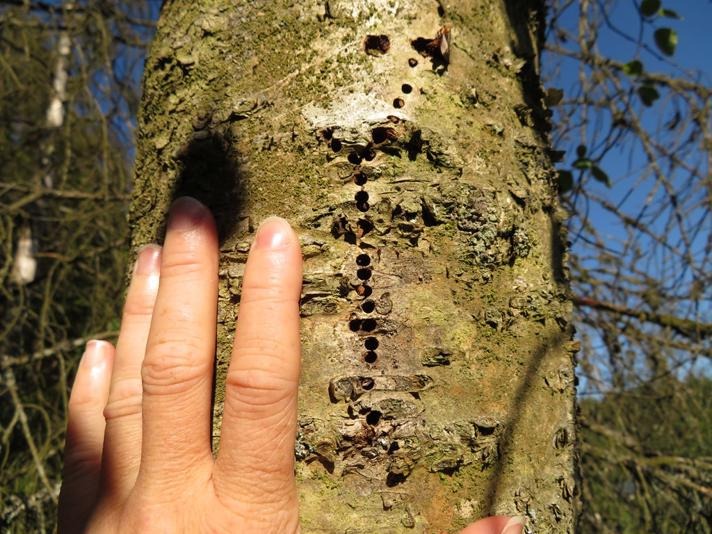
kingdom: Animalia
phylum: Arthropoda
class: Insecta
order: Coleoptera
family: Curculionidae
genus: Scolytus
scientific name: Scolytus ratzeburgii
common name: Birkebarkbille
